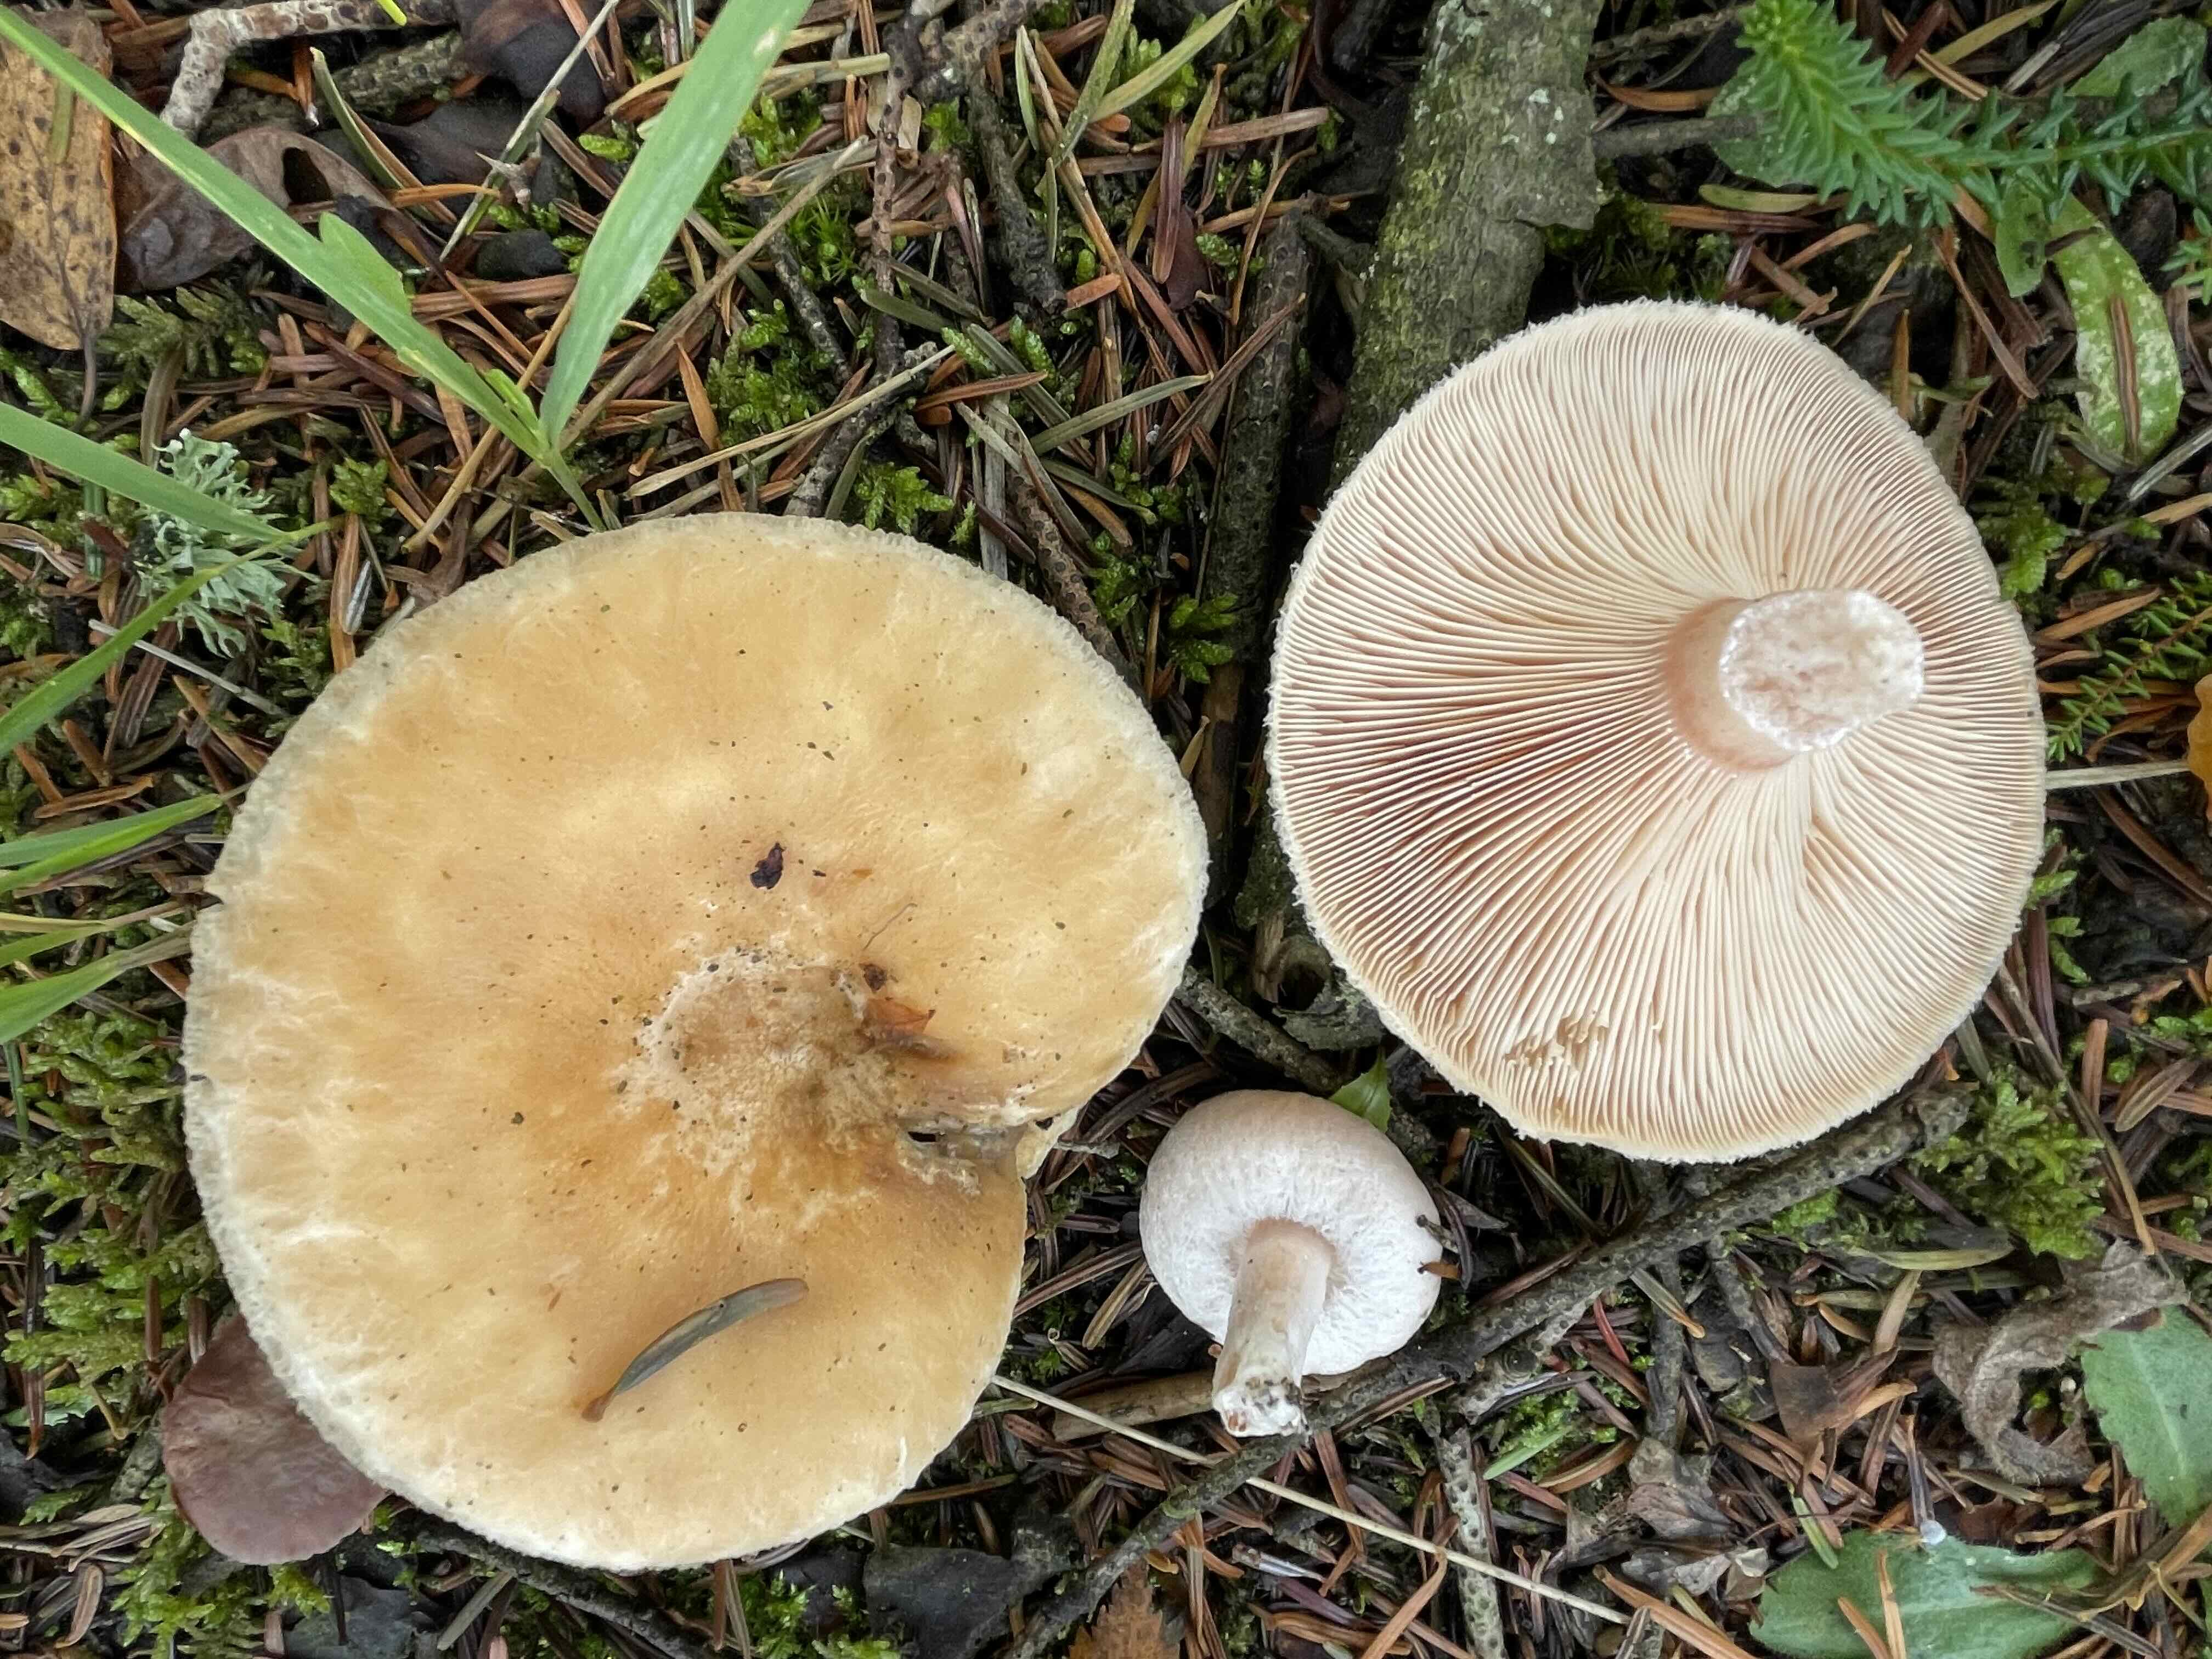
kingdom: Fungi
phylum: Basidiomycota
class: Agaricomycetes
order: Russulales
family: Russulaceae
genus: Lactarius
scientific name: Lactarius torminosus
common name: skægget mælkehat
